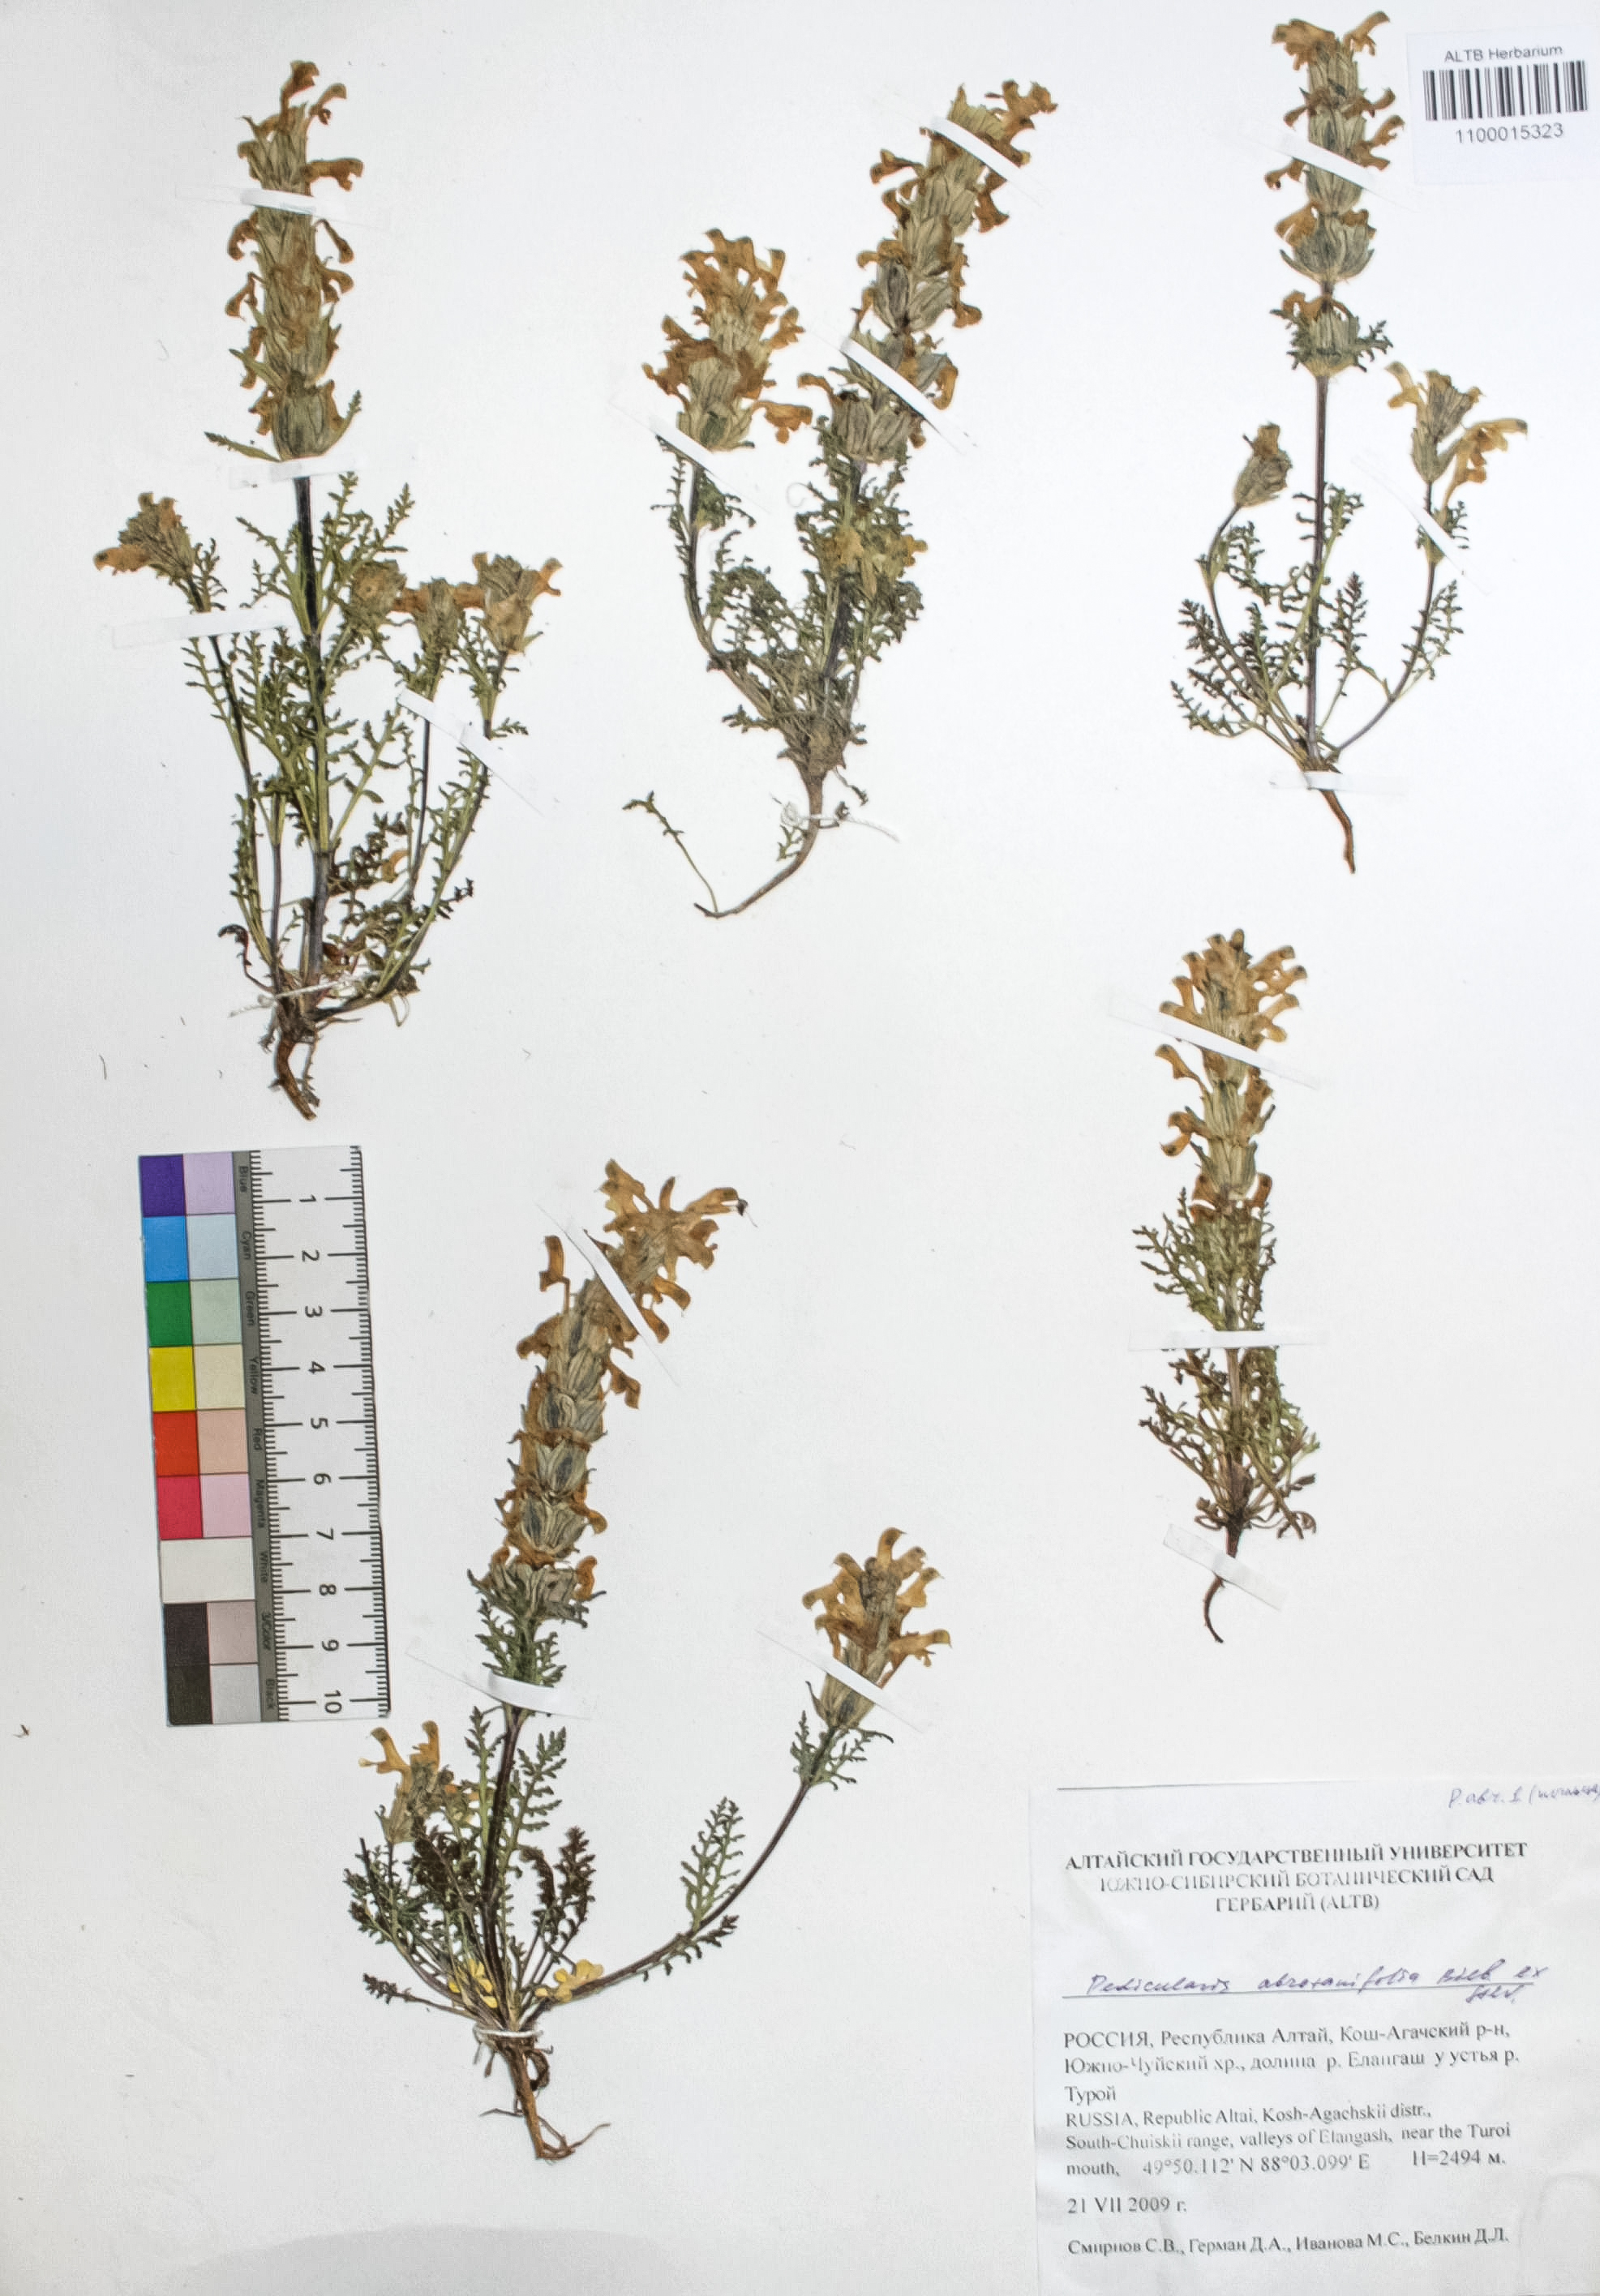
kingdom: Plantae
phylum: Tracheophyta
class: Magnoliopsida
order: Lamiales
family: Orobanchaceae
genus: Pedicularis
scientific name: Pedicularis abrotanifolia
